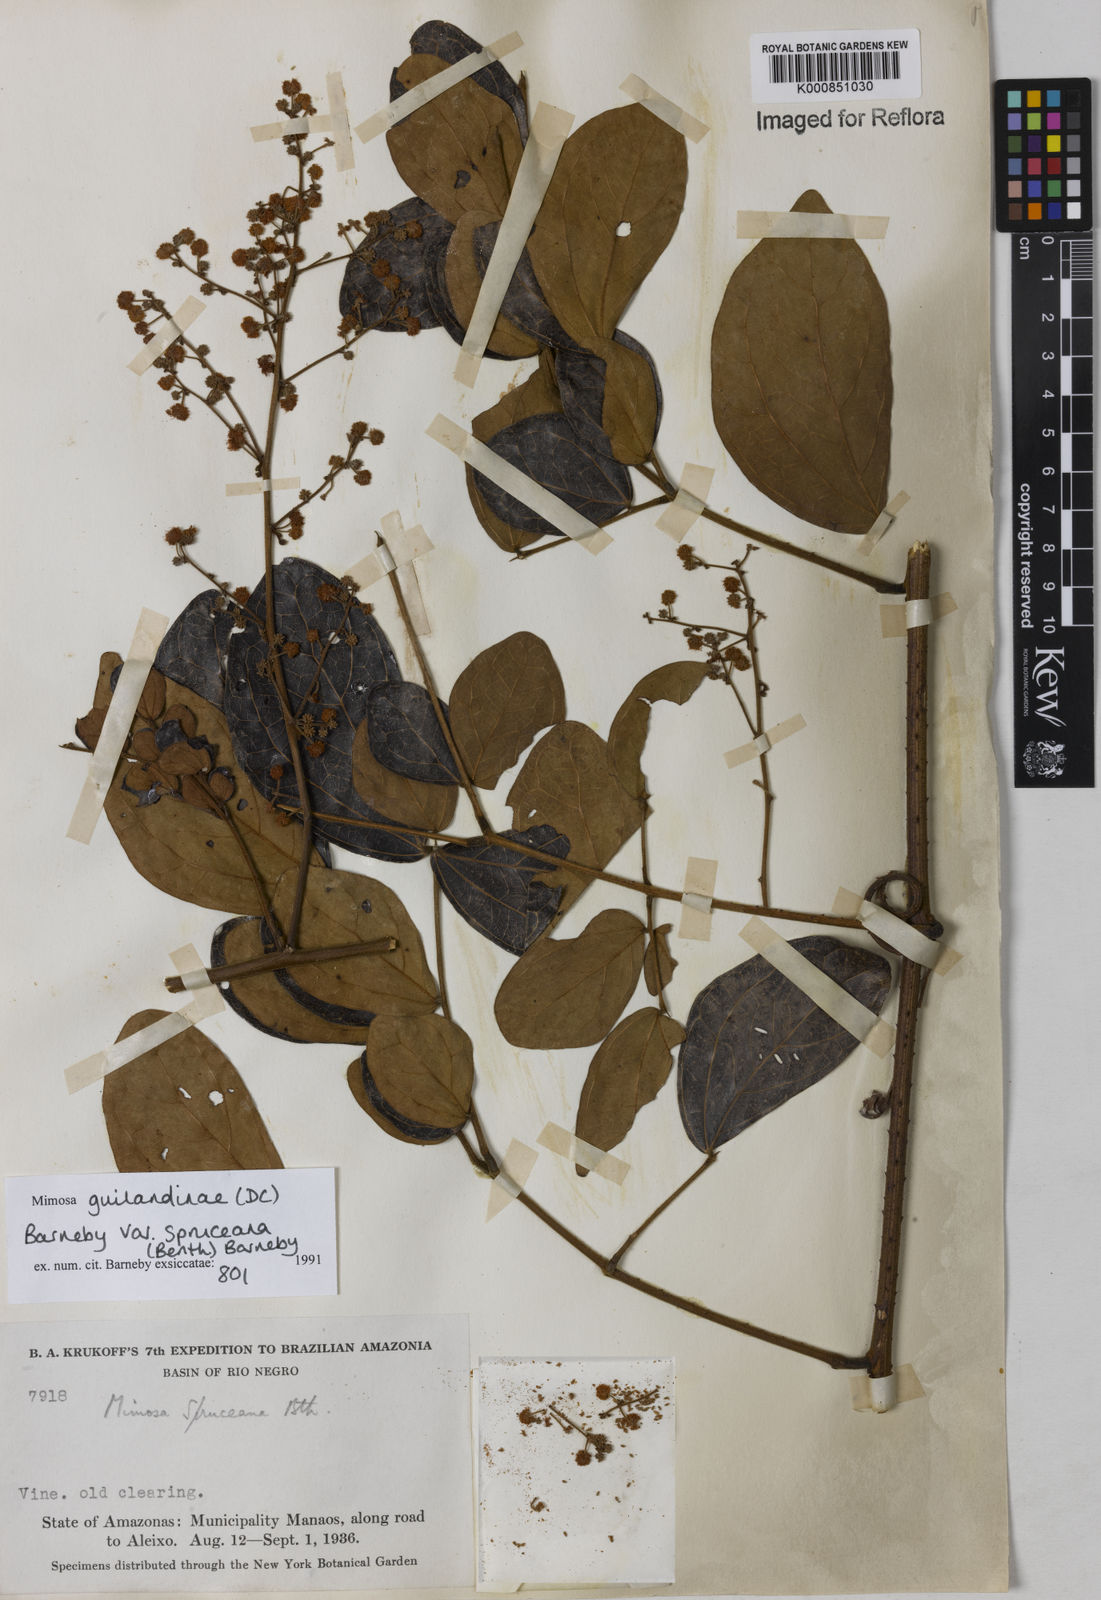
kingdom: Plantae
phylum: Tracheophyta
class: Magnoliopsida
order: Fabales
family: Fabaceae
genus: Mimosa
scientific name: Mimosa guilandinae
